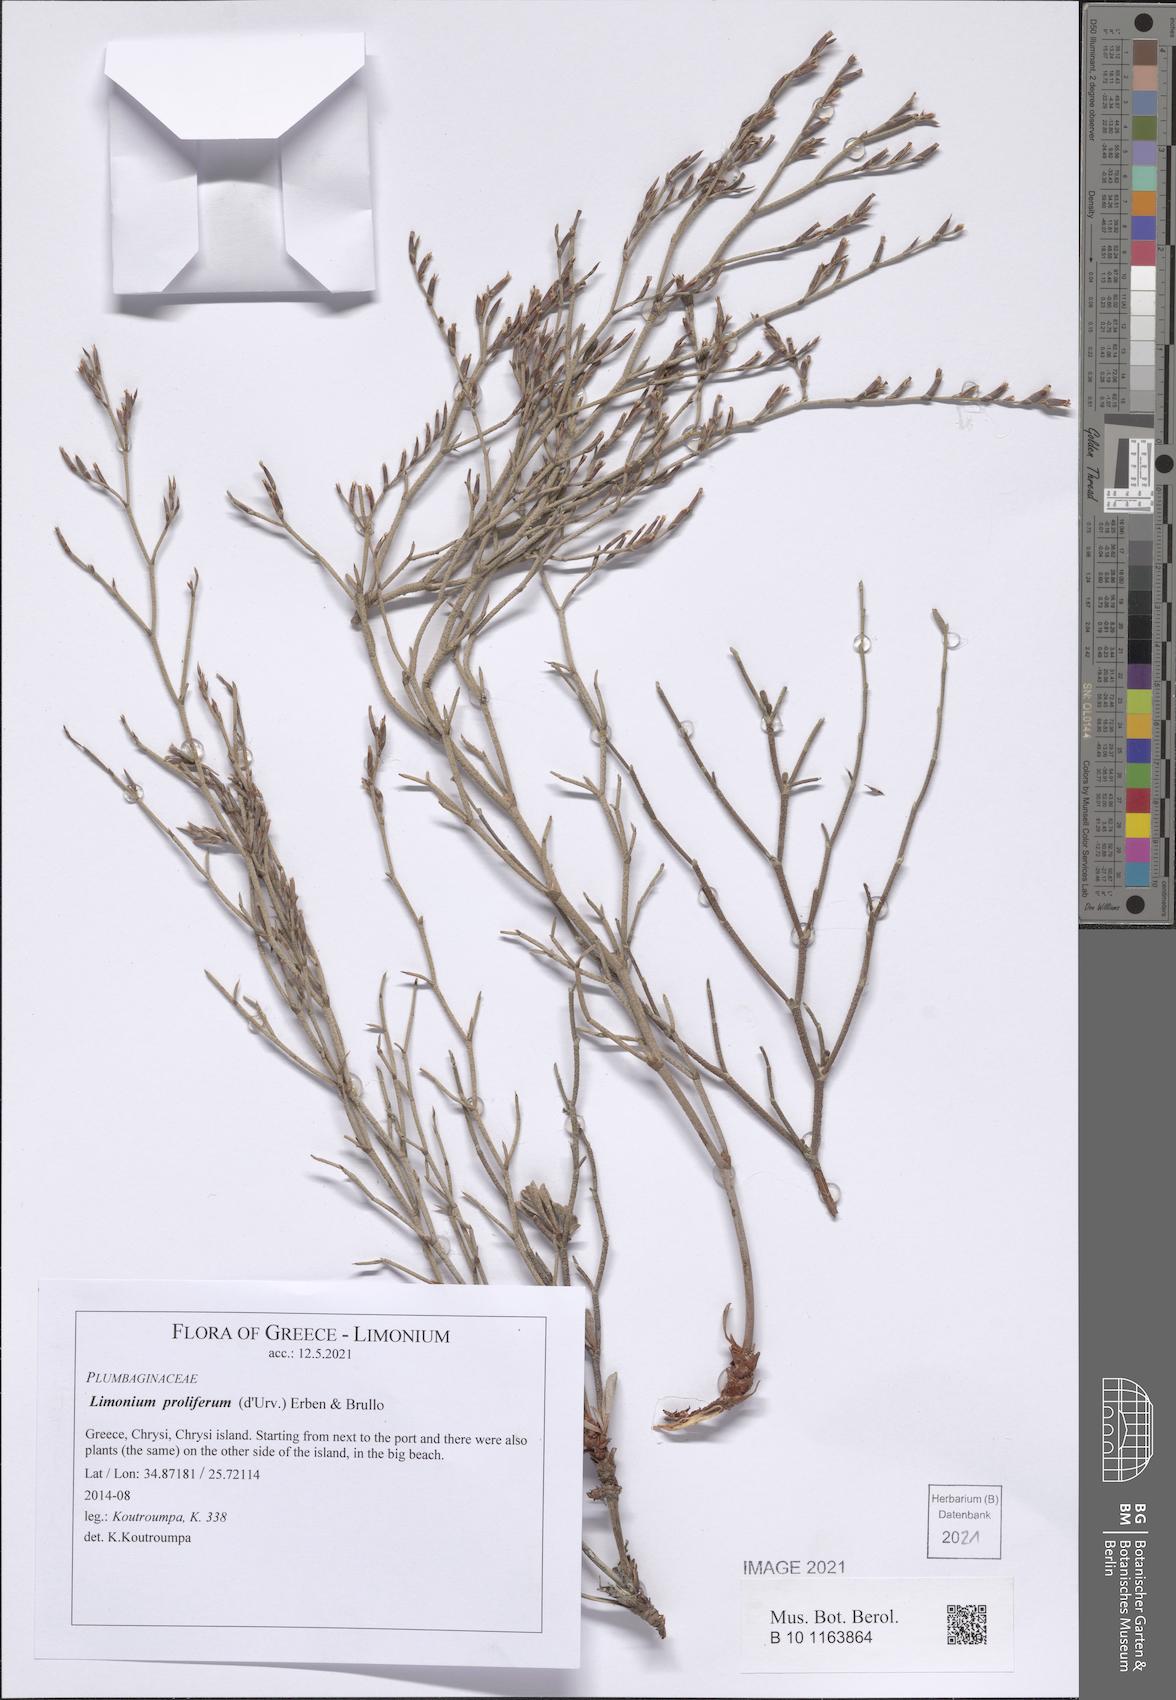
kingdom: Plantae
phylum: Tracheophyta
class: Magnoliopsida
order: Caryophyllales
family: Plumbaginaceae
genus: Limonium
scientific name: Limonium proliferum
